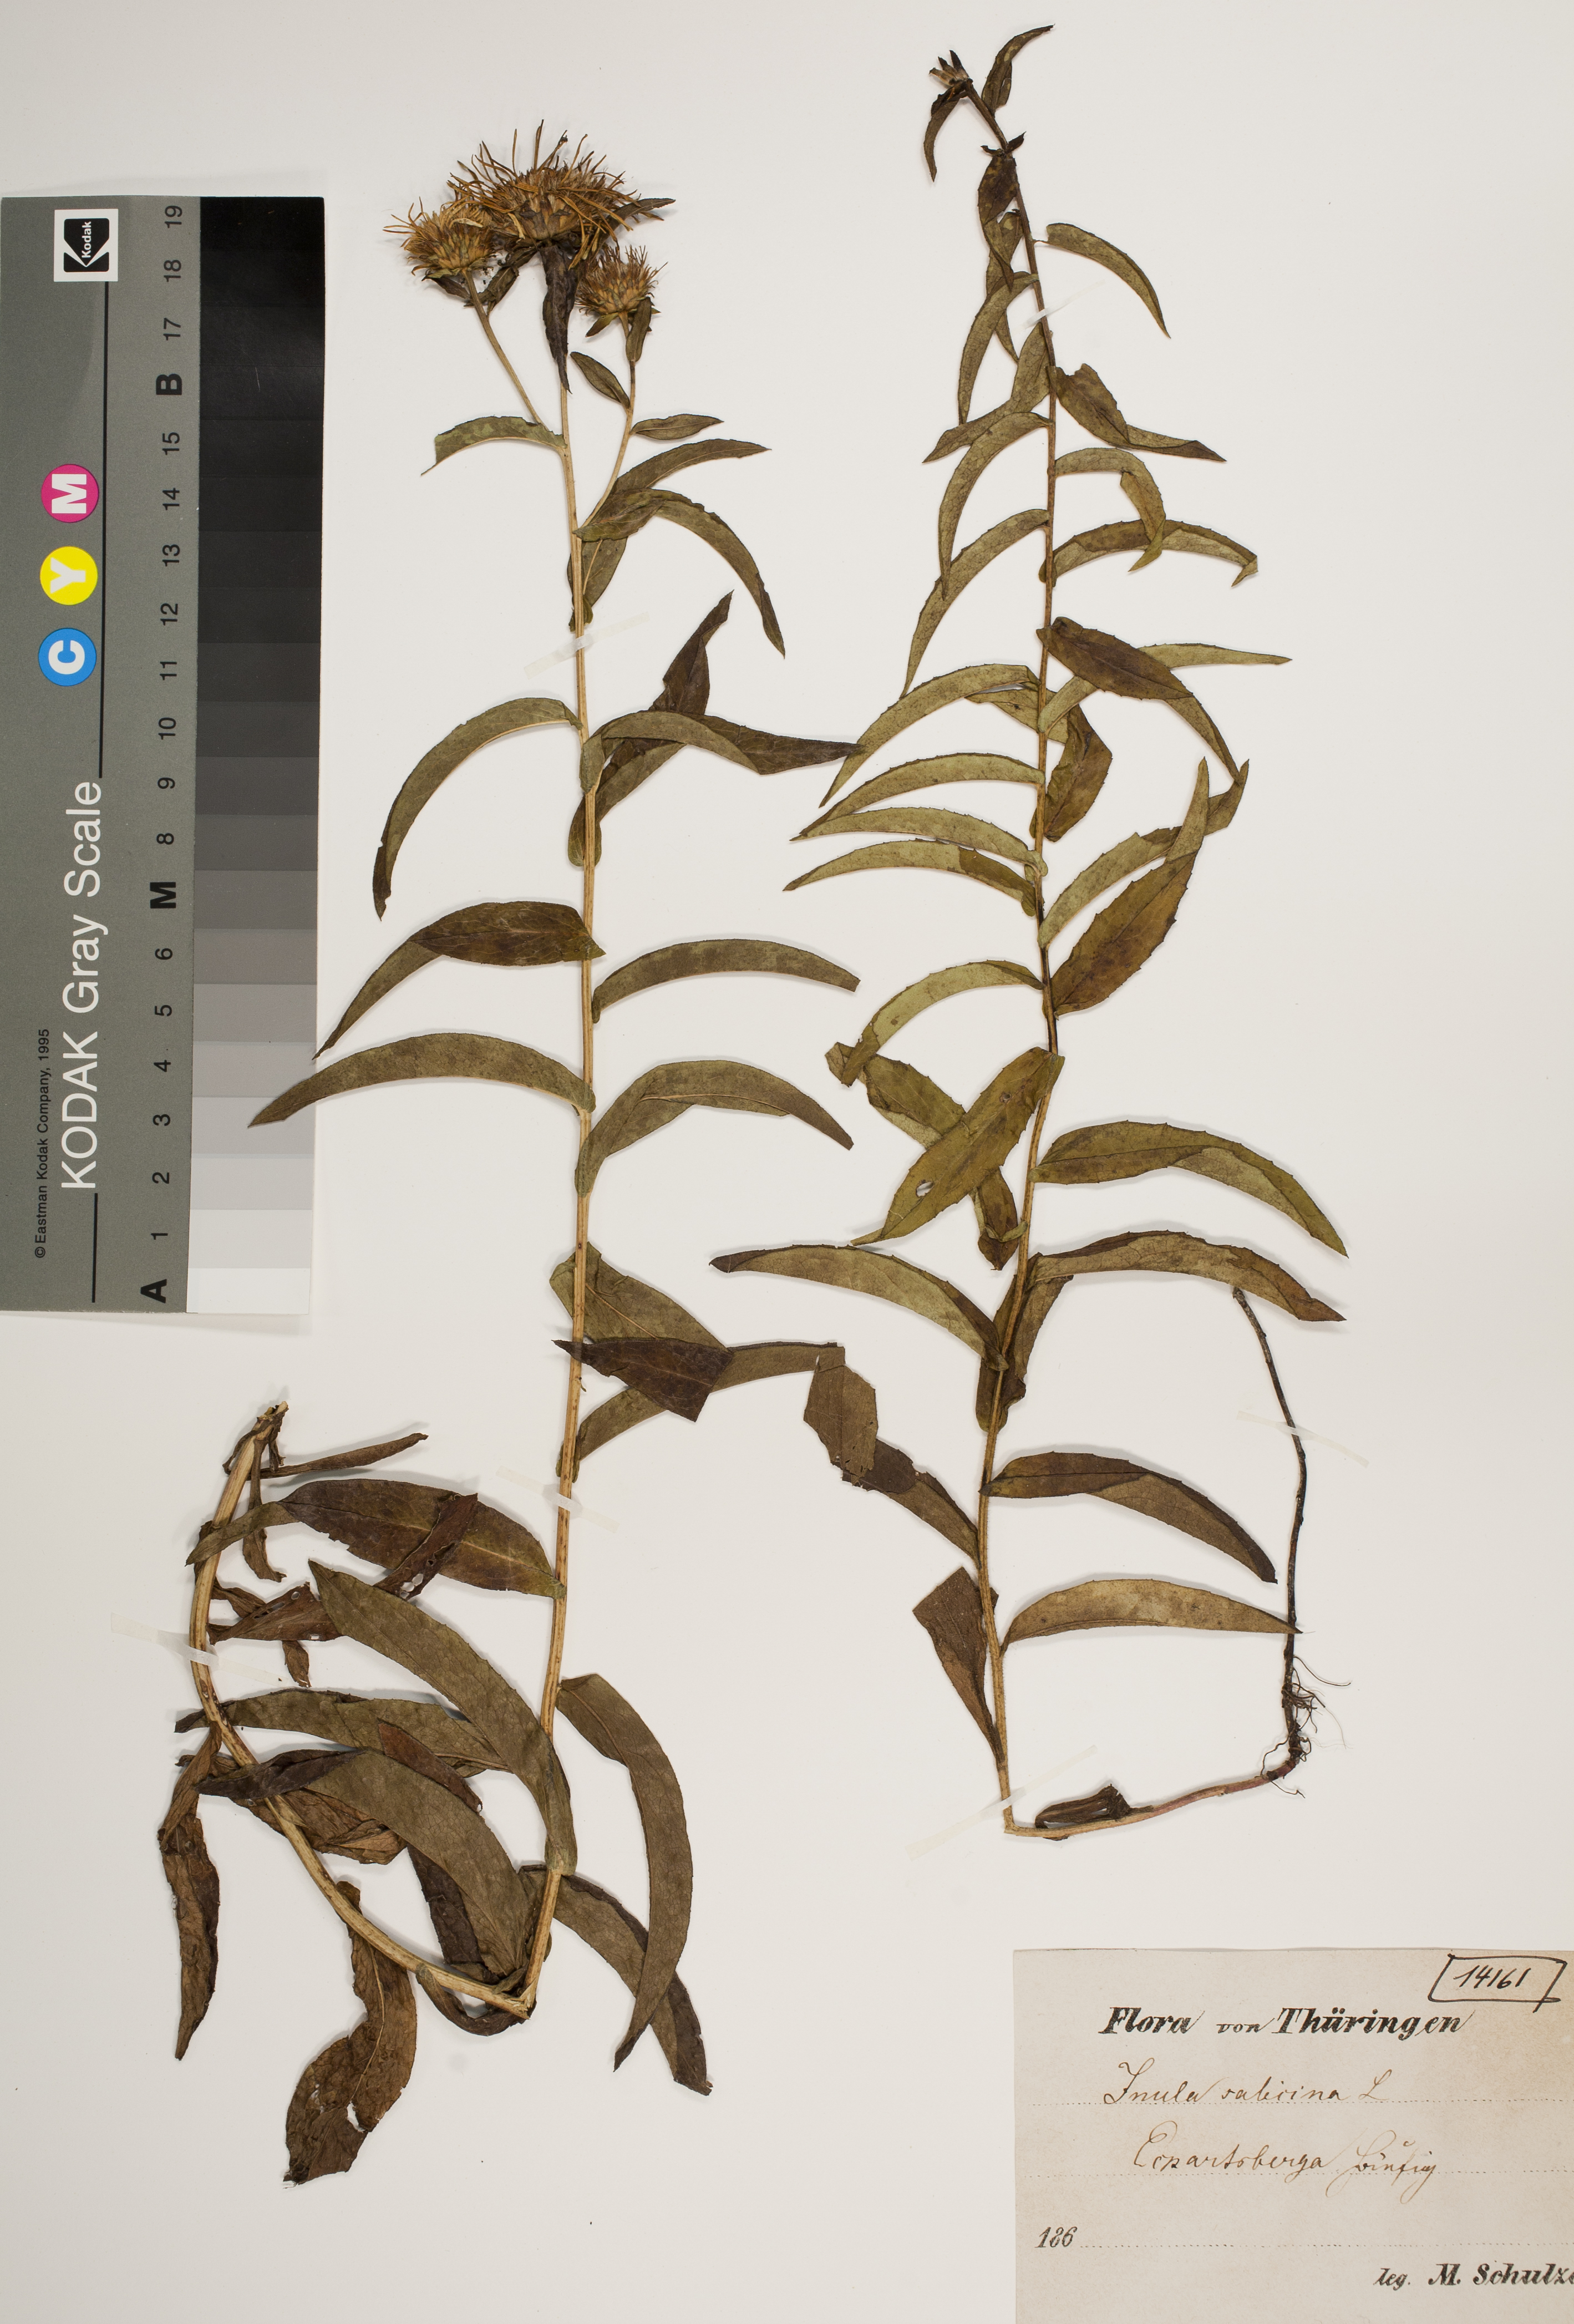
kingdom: Plantae
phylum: Tracheophyta
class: Magnoliopsida
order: Asterales
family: Asteraceae
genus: Pentanema
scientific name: Pentanema salicinum
